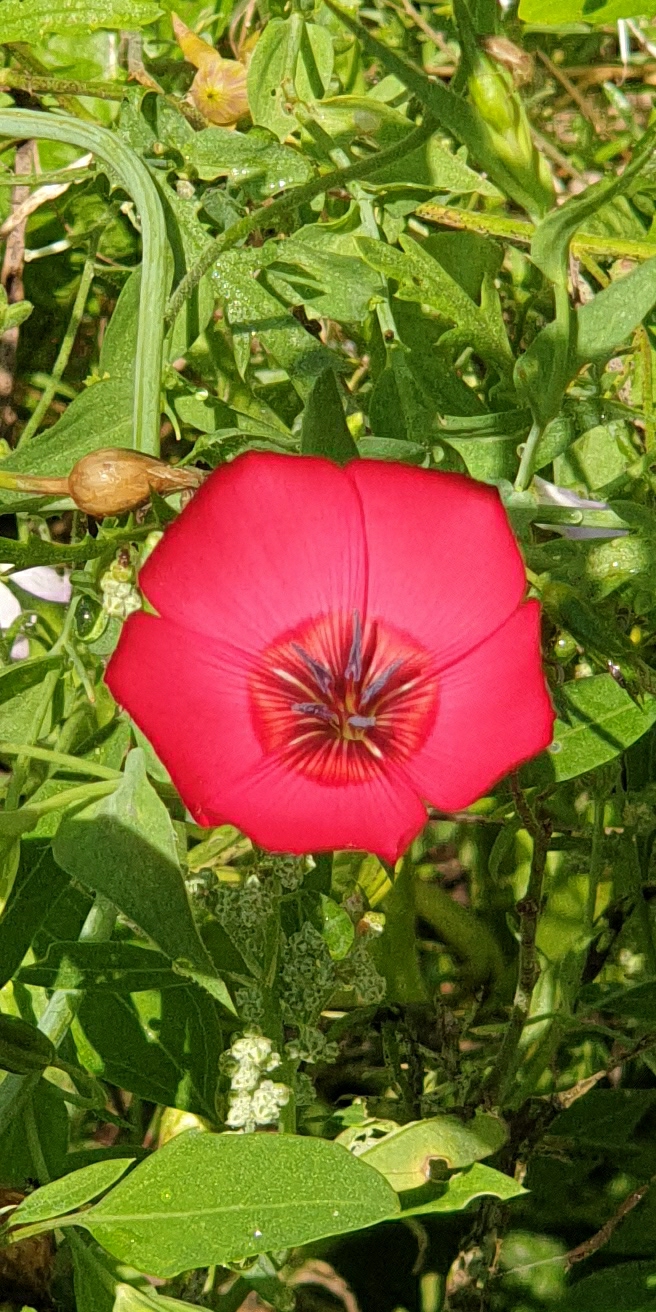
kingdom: Plantae
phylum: Tracheophyta
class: Magnoliopsida
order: Malpighiales
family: Linaceae
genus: Linum
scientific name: Linum grandiflorum
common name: Rød hør
